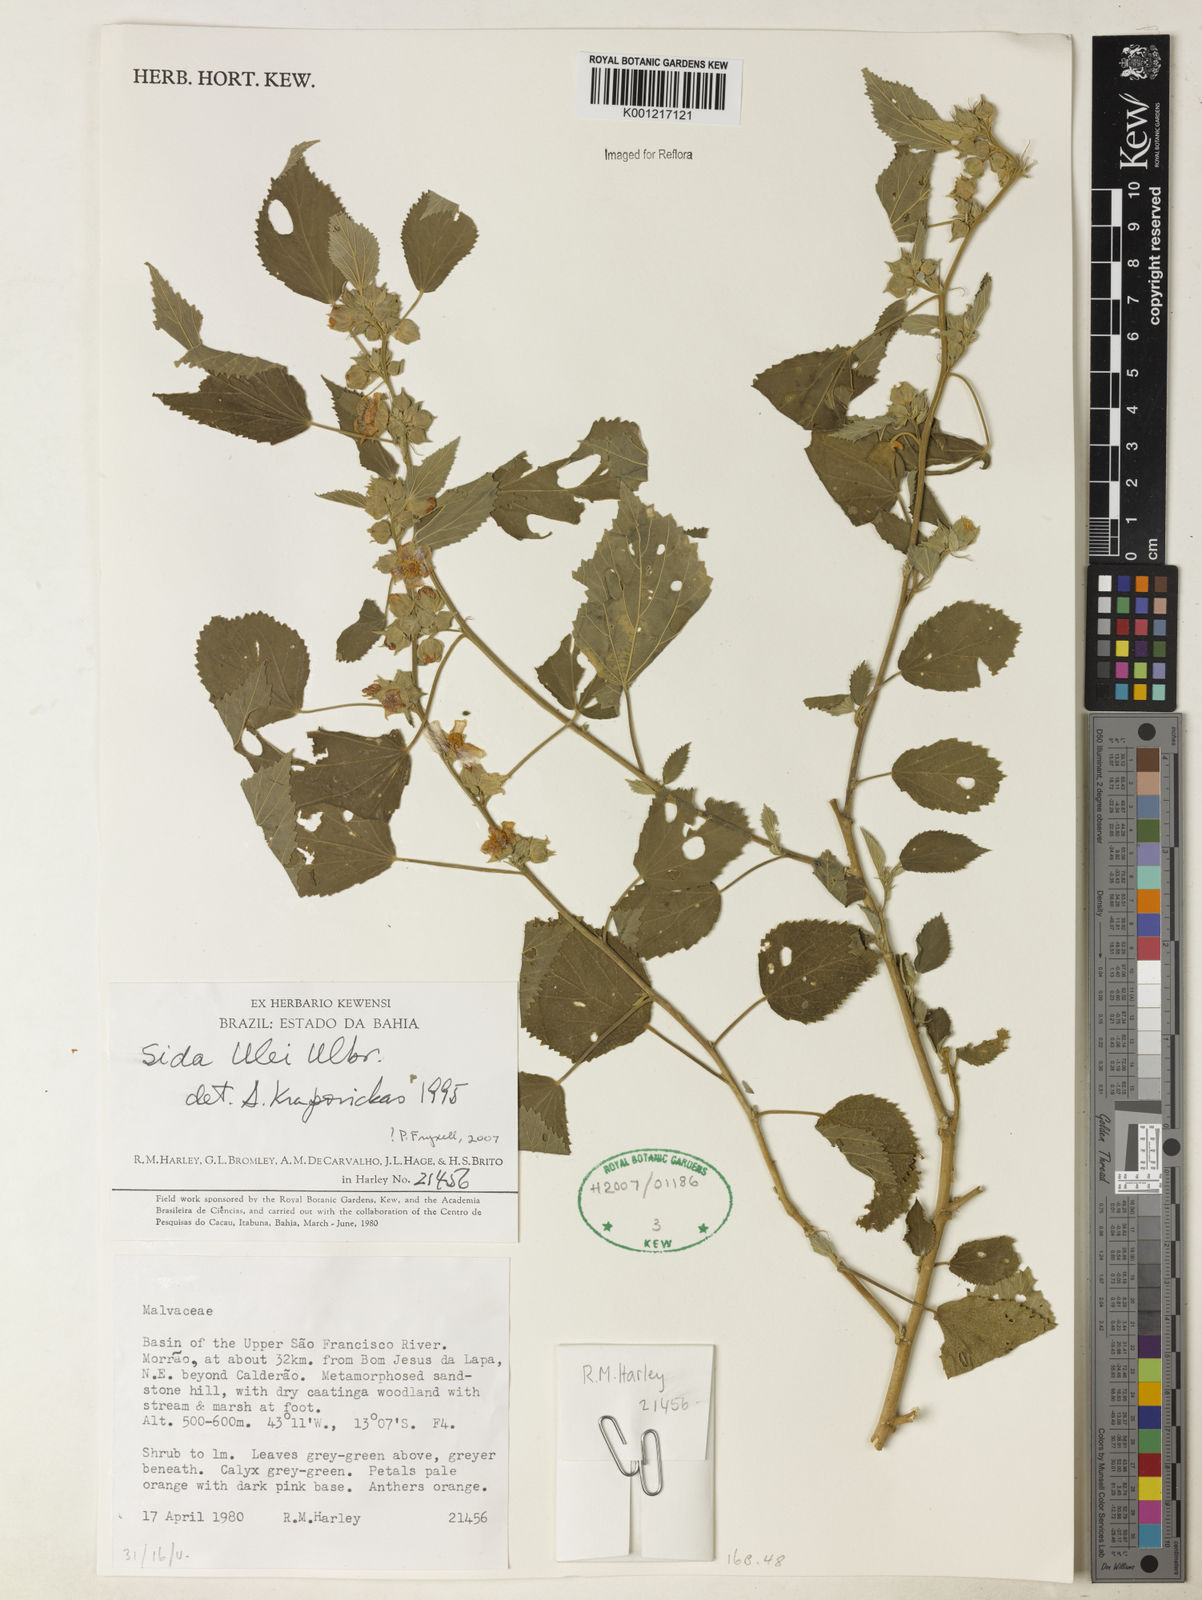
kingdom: Plantae
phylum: Tracheophyta
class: Magnoliopsida
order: Malvales
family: Malvaceae
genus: Sida
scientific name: Sida ulei
